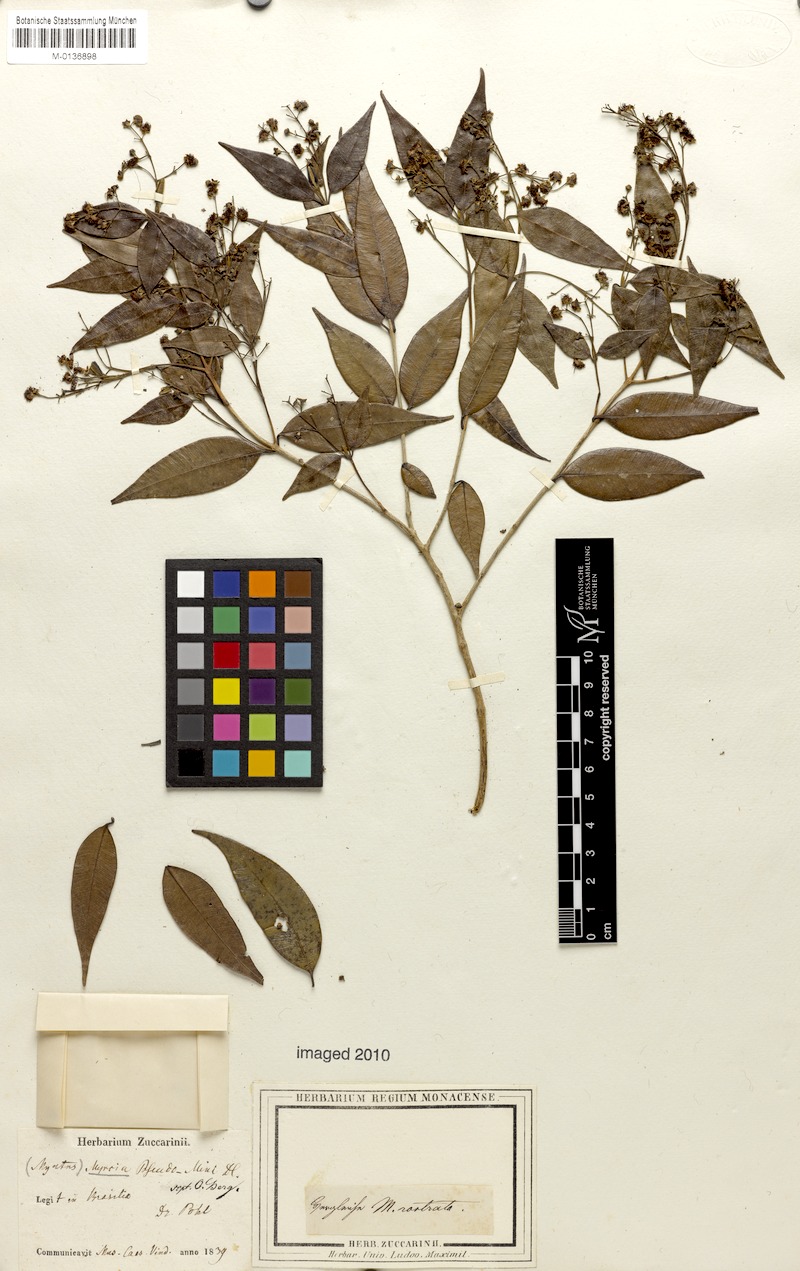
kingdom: Plantae
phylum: Tracheophyta
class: Magnoliopsida
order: Myrtales
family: Myrtaceae
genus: Myrcia
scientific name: Myrcia splendens
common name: Surinam cherry
